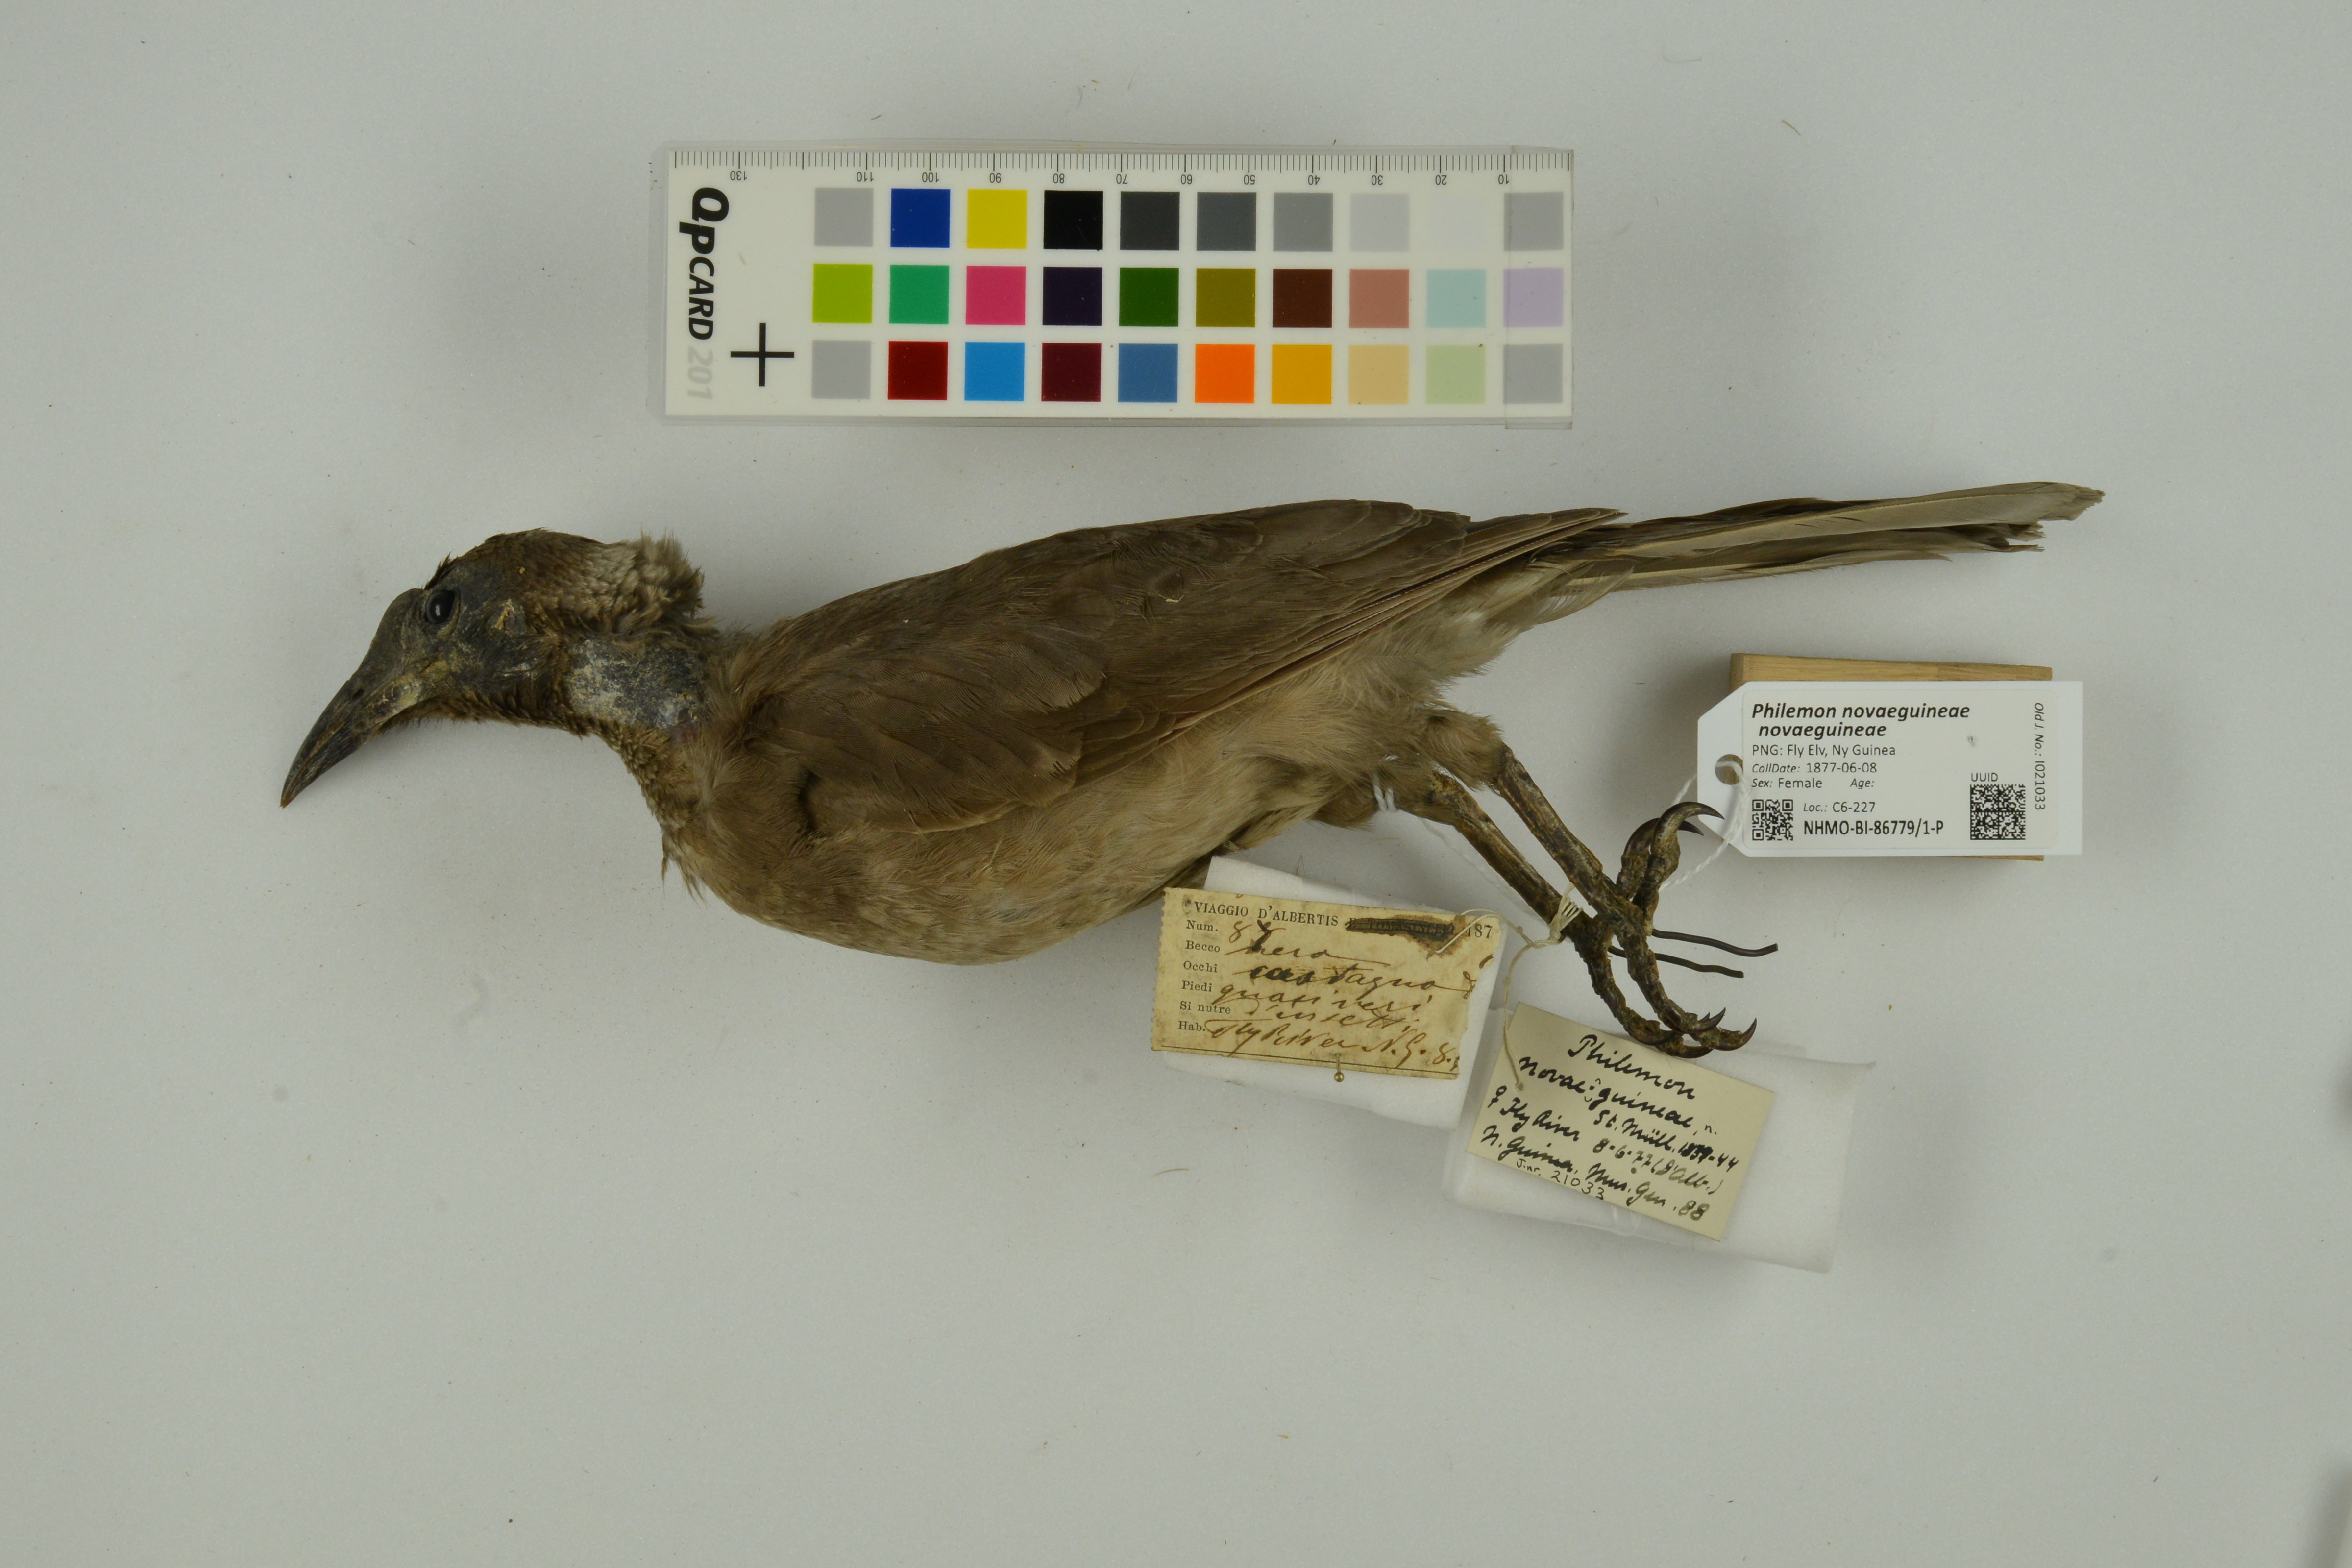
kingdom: Animalia
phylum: Chordata
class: Aves
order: Passeriformes
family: Meliphagidae
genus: Philemon
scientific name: Philemon novaeguineae
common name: New guinea friarbird
